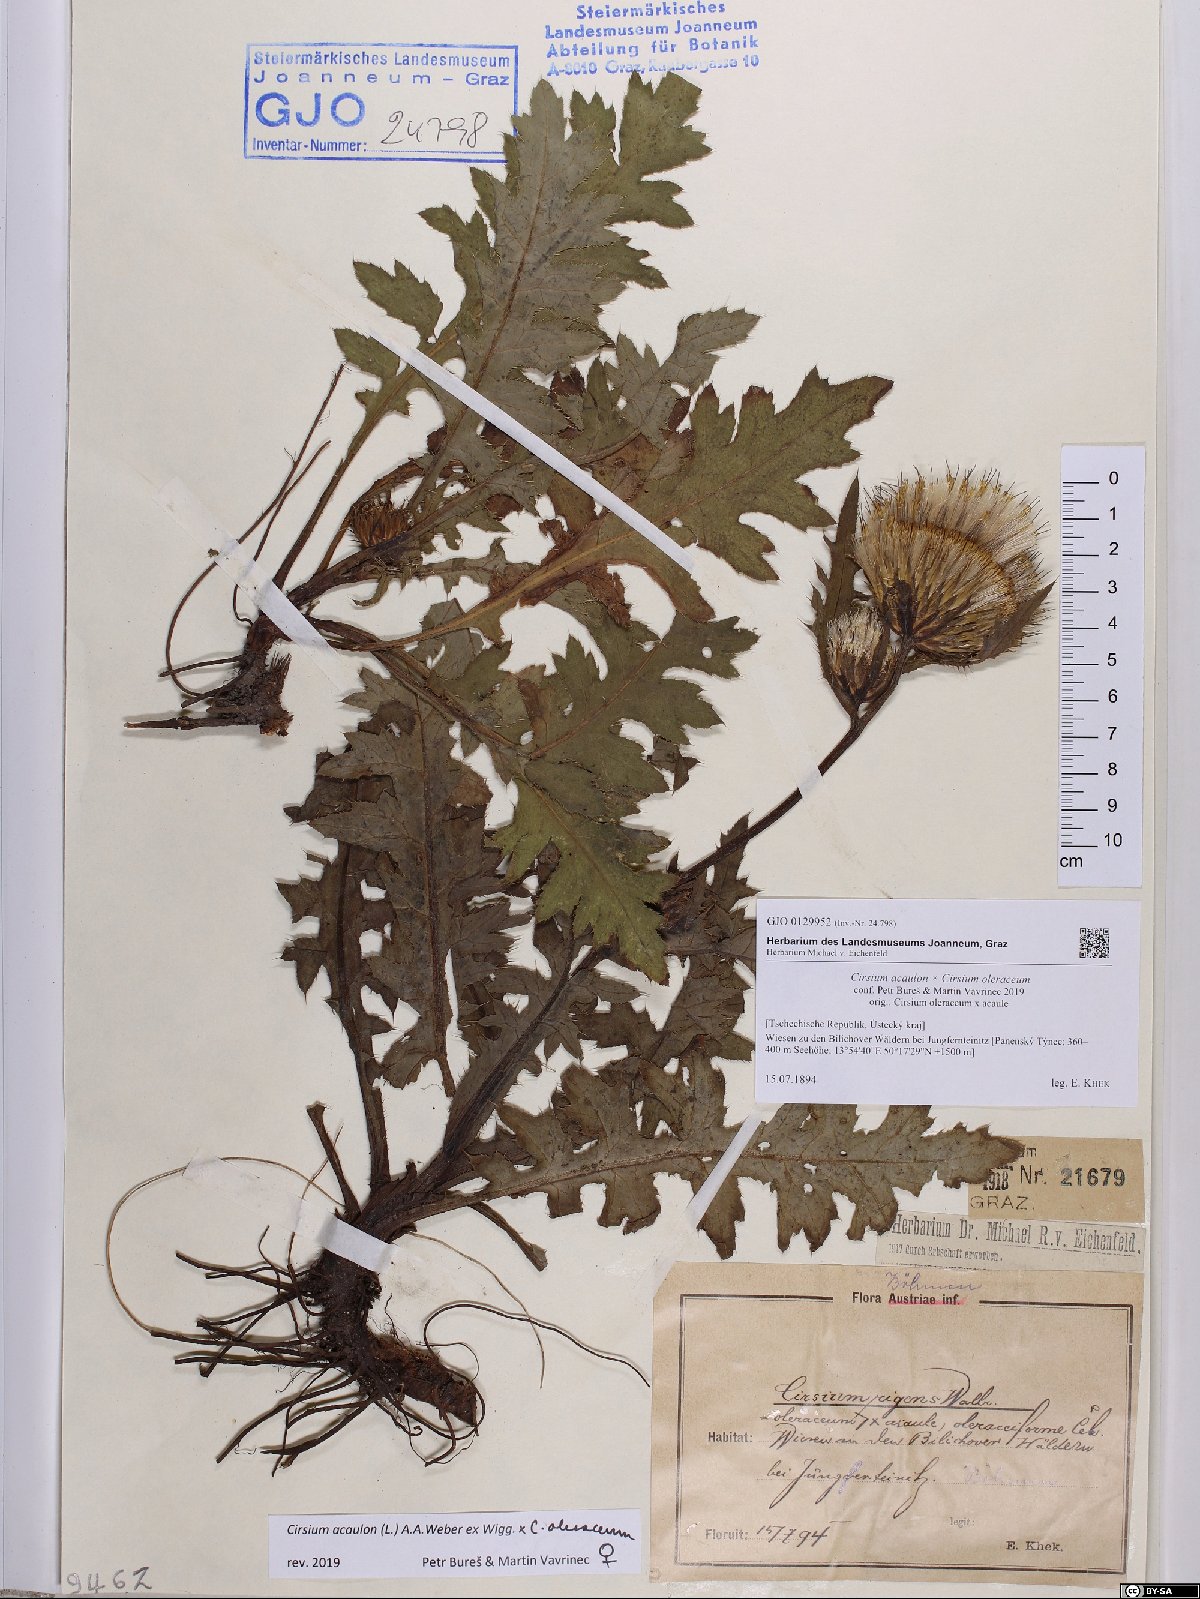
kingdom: Plantae
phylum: Tracheophyta
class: Magnoliopsida
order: Asterales
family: Asteraceae
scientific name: Asteraceae
